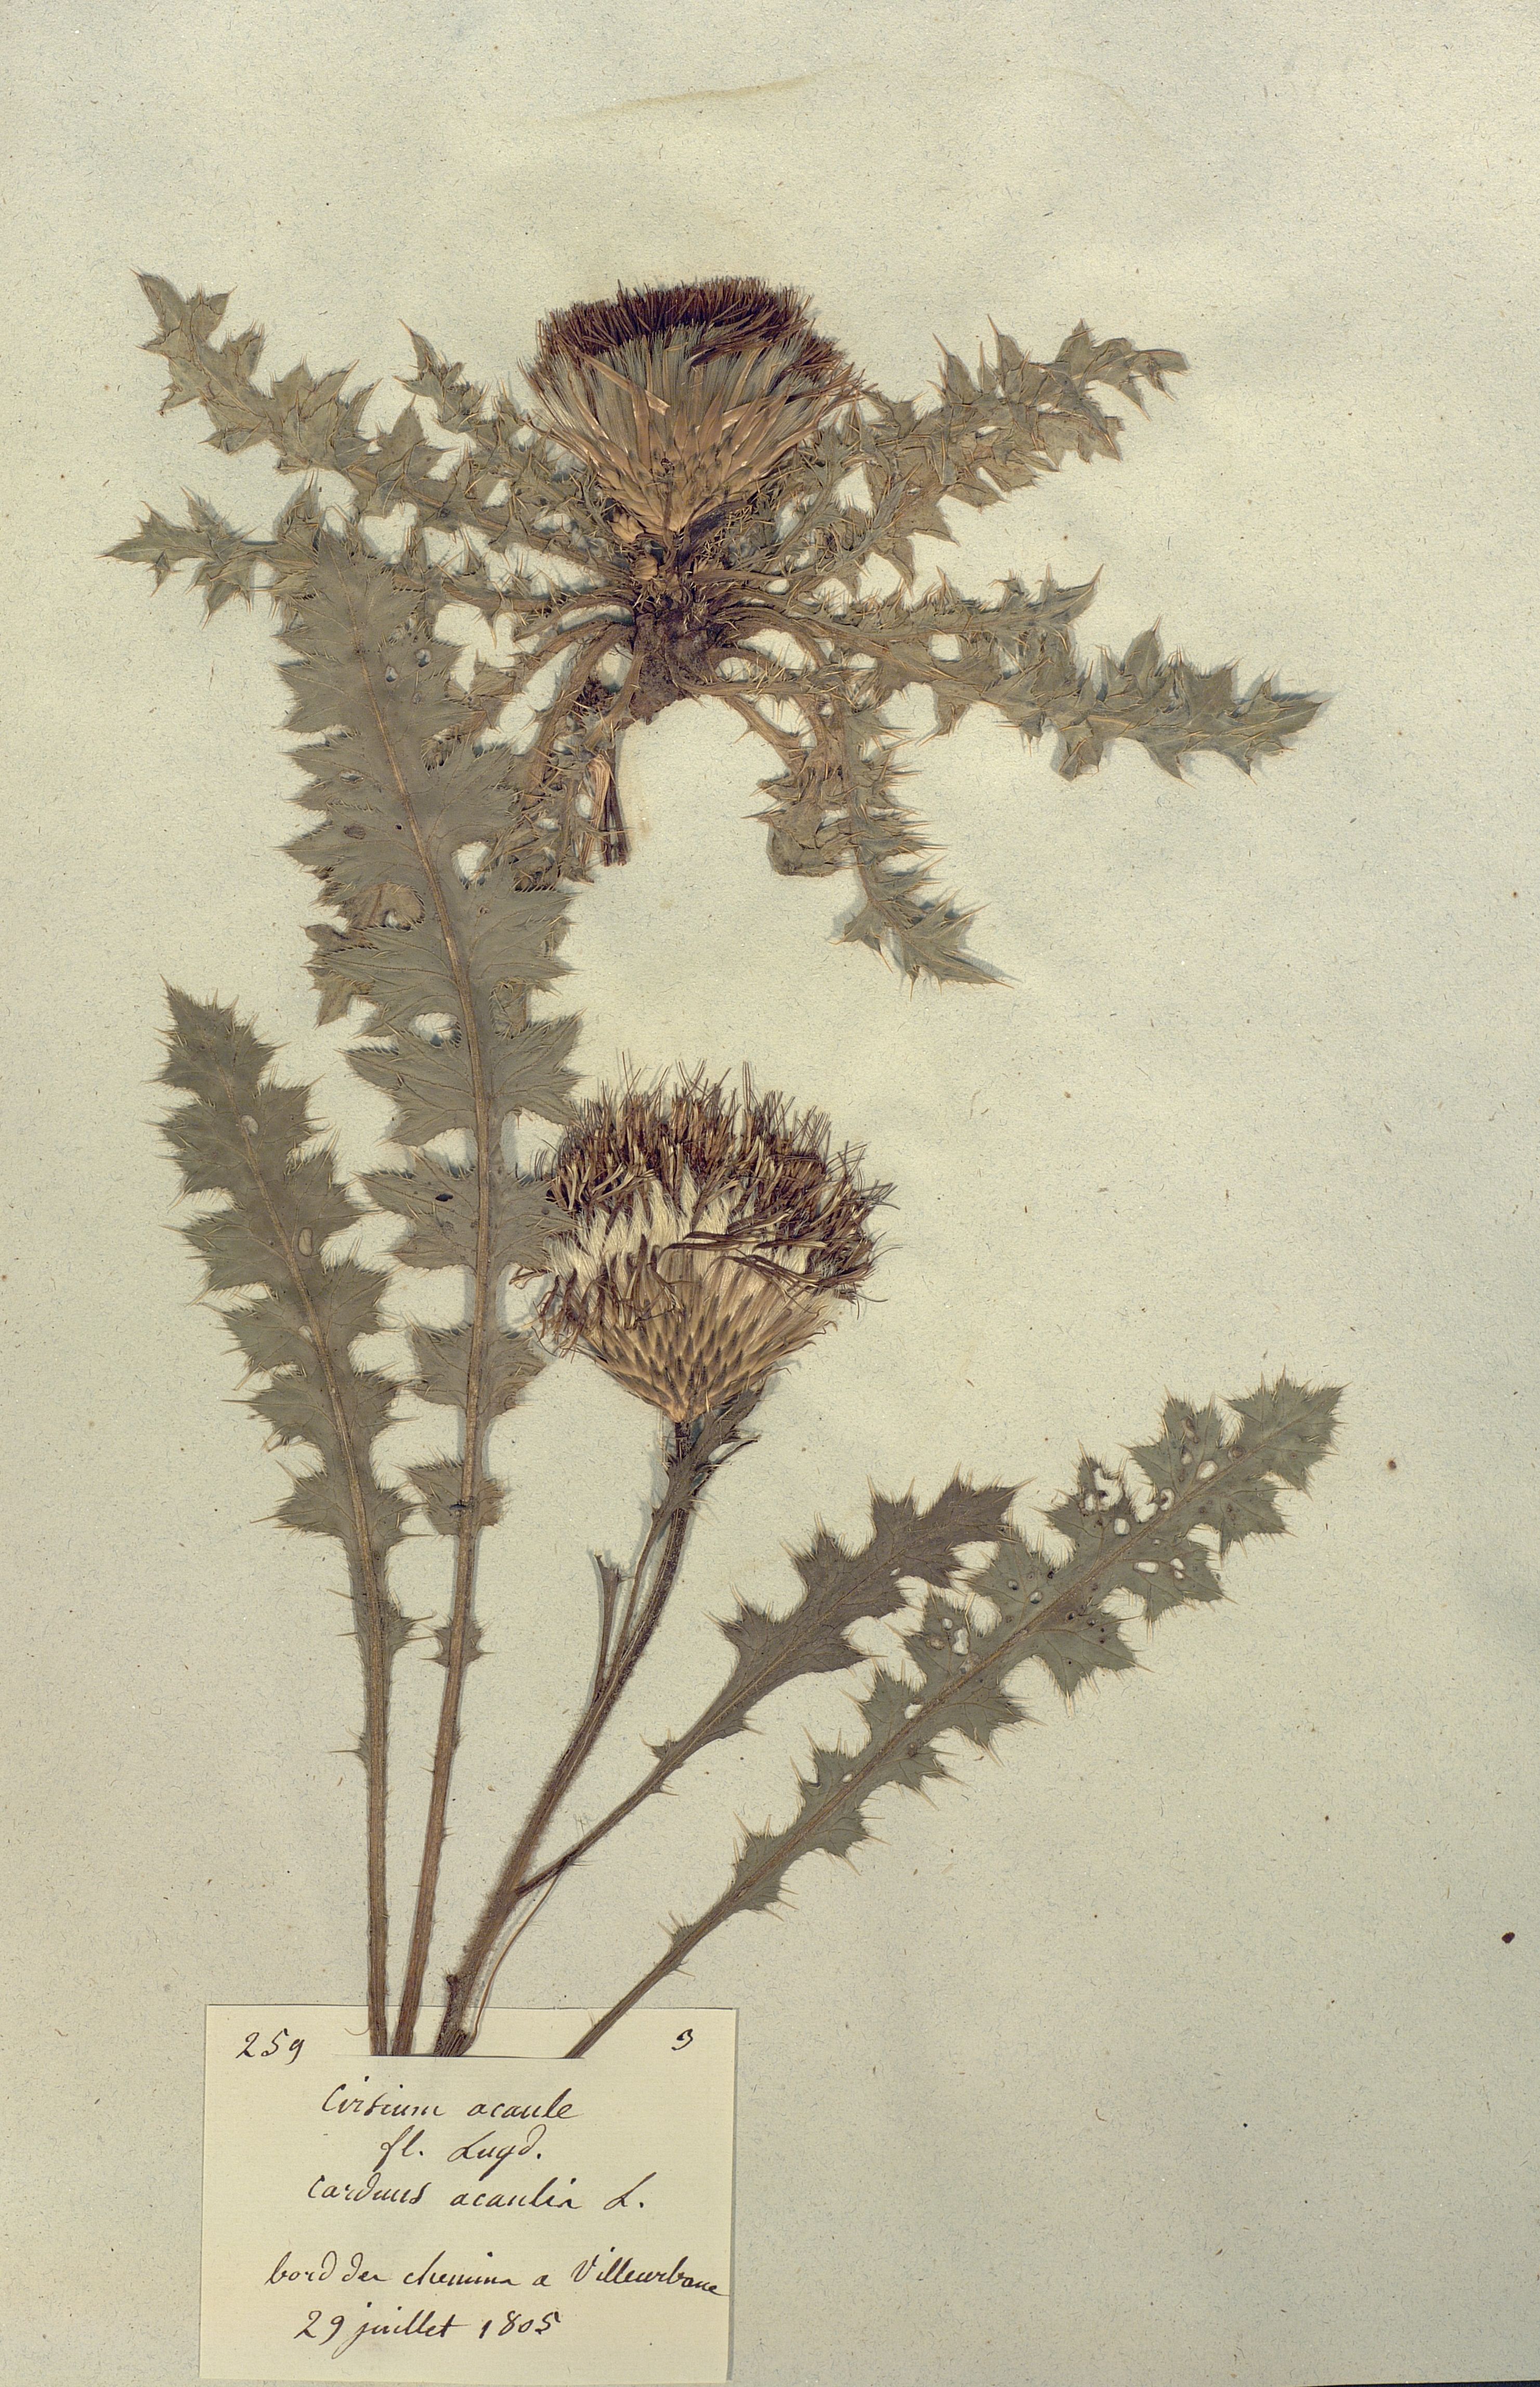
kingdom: Plantae
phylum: Tracheophyta
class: Magnoliopsida
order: Asterales
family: Asteraceae
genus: Cirsium
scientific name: Cirsium acaule
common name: Dwarf thistle
